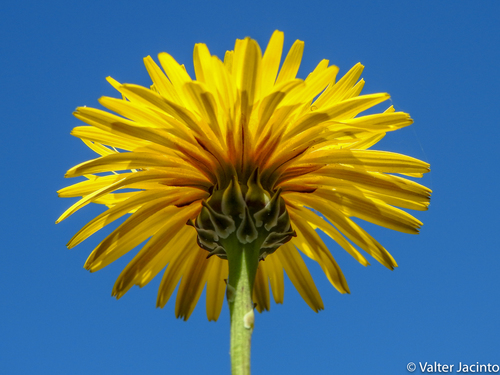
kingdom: Plantae
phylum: Tracheophyta
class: Magnoliopsida
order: Asterales
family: Asteraceae
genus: Reichardia
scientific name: Reichardia picroides
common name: Common brighteyes
